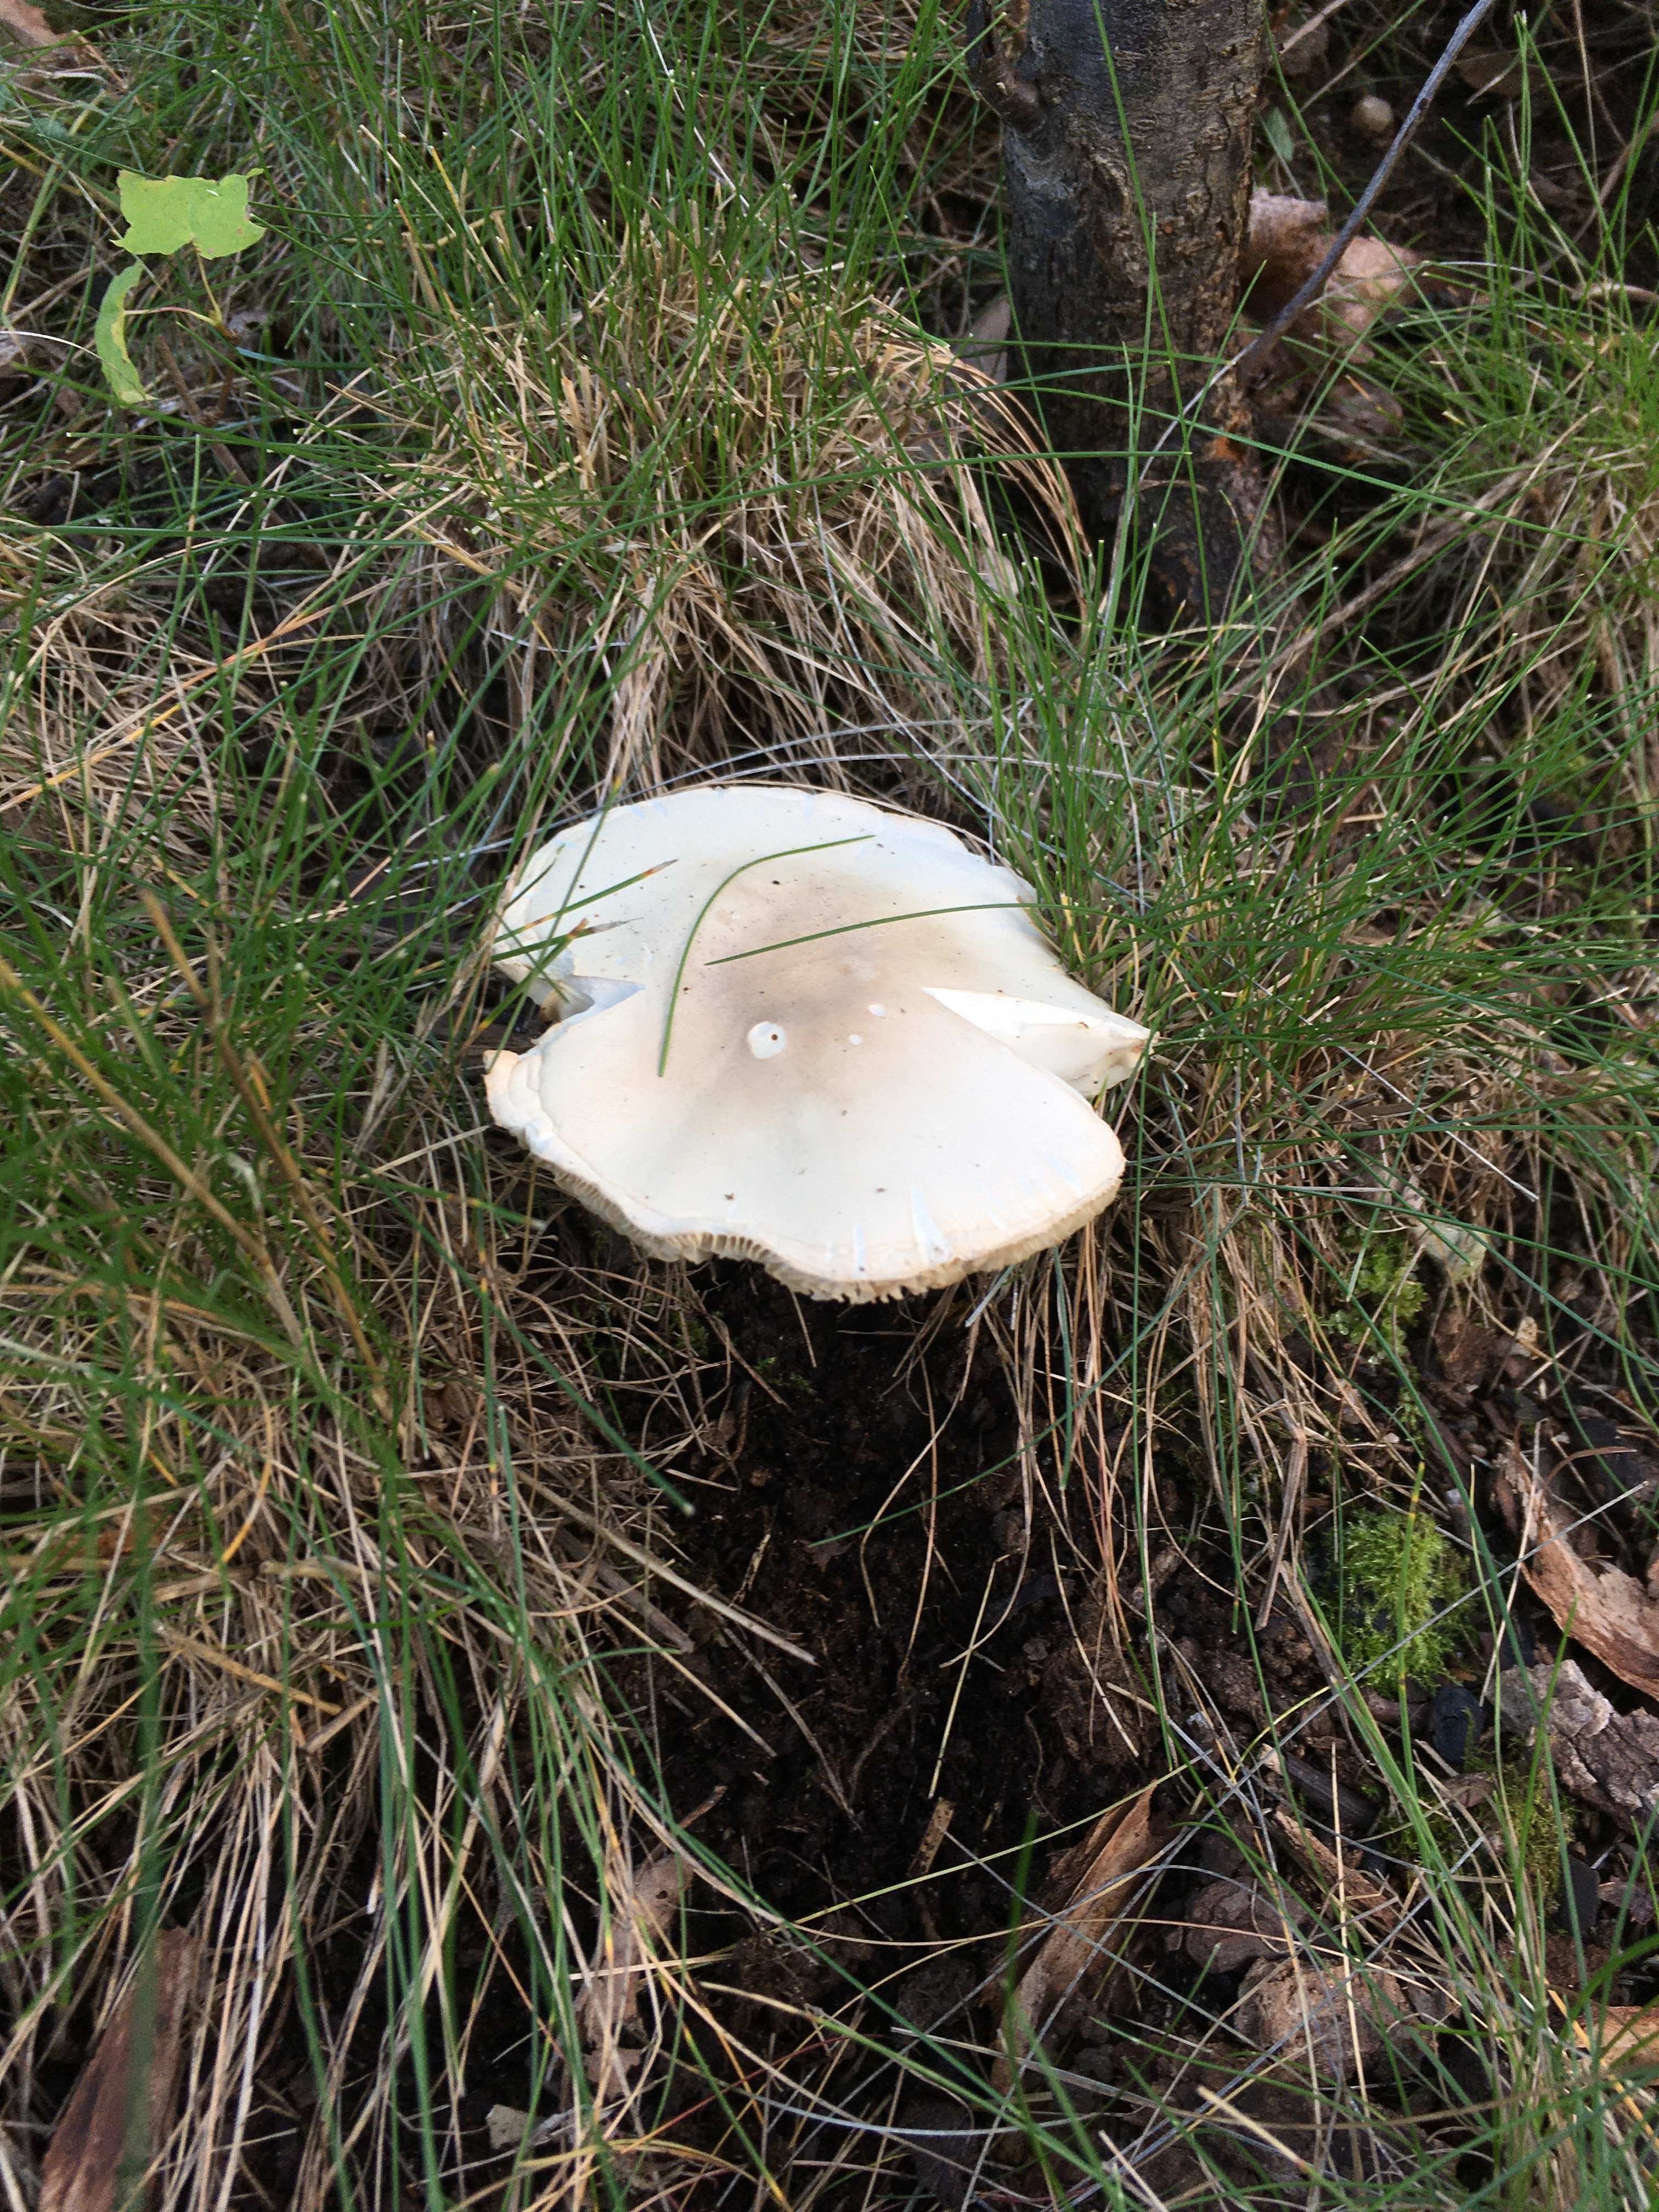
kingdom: Fungi
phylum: Basidiomycota
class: Agaricomycetes
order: Agaricales
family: Agaricaceae
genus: Leucoagaricus
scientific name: Leucoagaricus leucothites
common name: White dapperling
